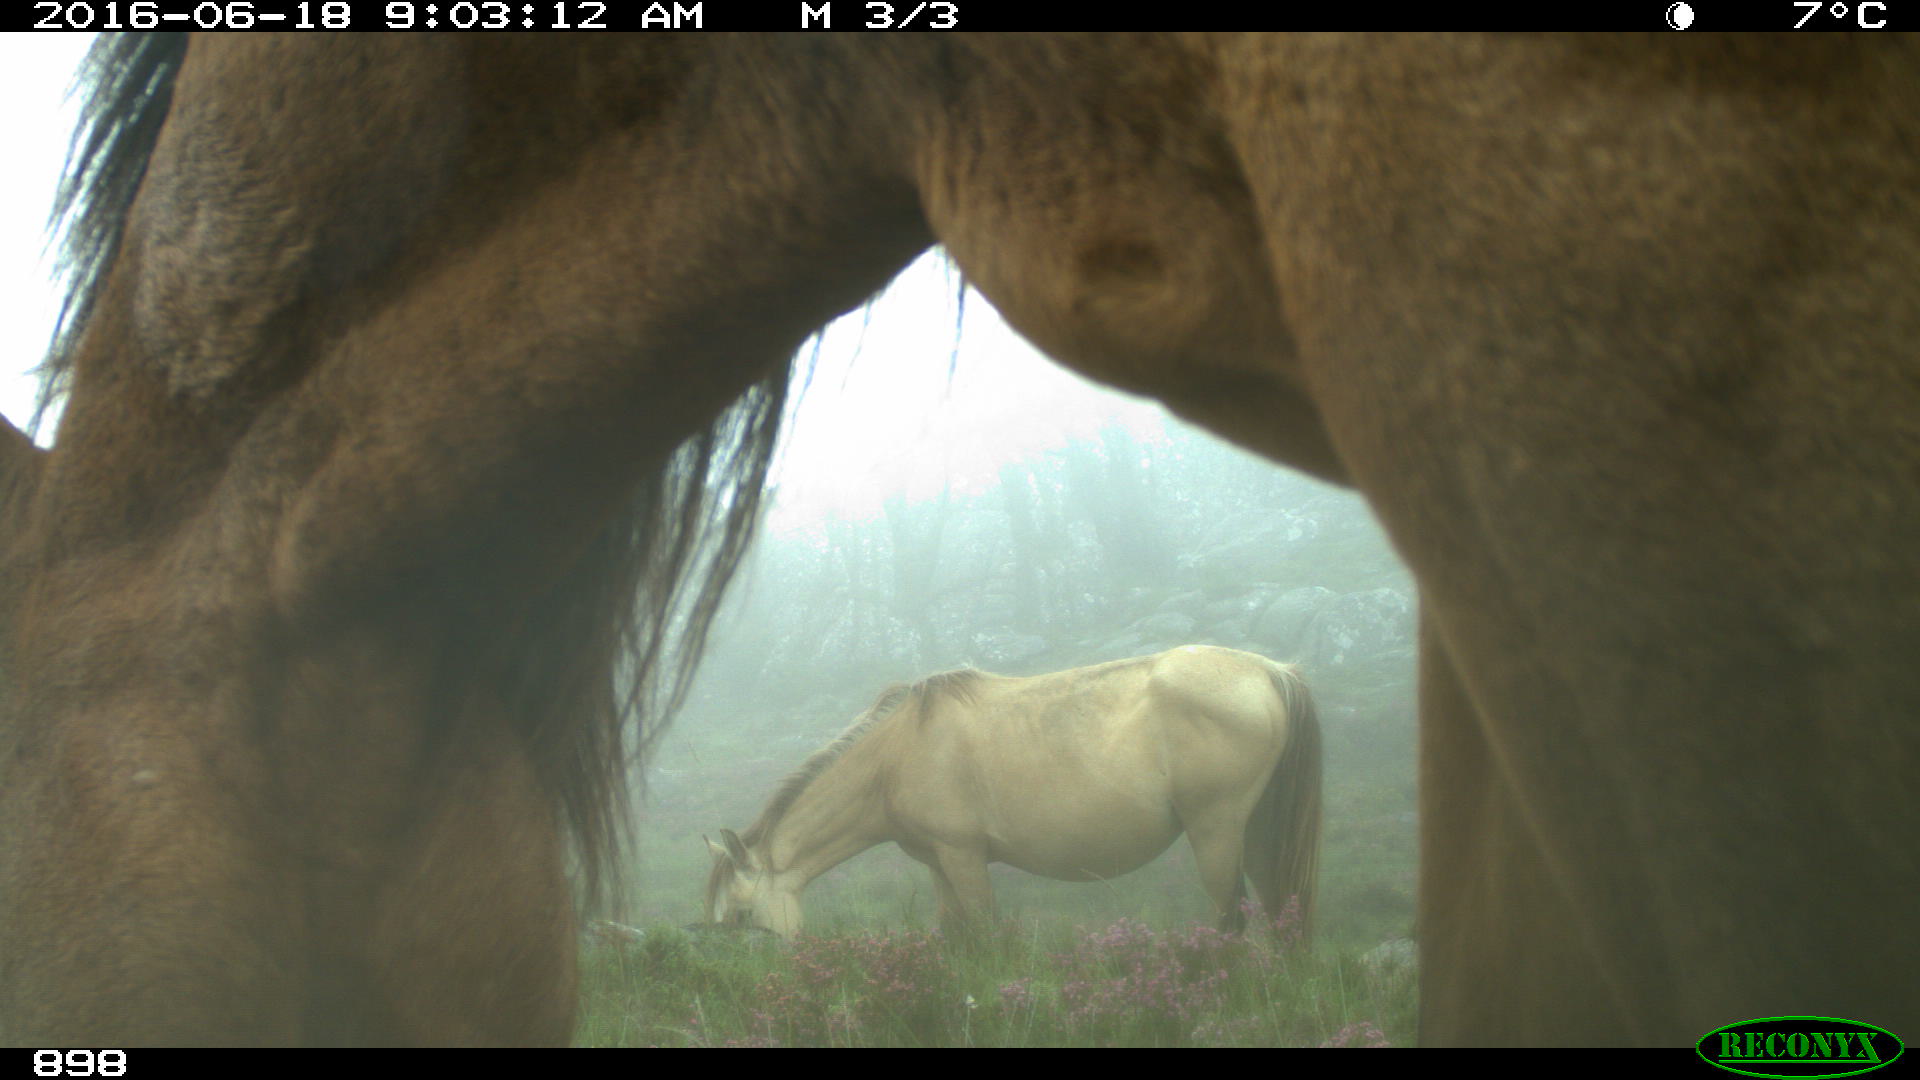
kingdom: Animalia
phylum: Chordata
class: Mammalia
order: Perissodactyla
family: Equidae
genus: Equus
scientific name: Equus caballus
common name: Horse
